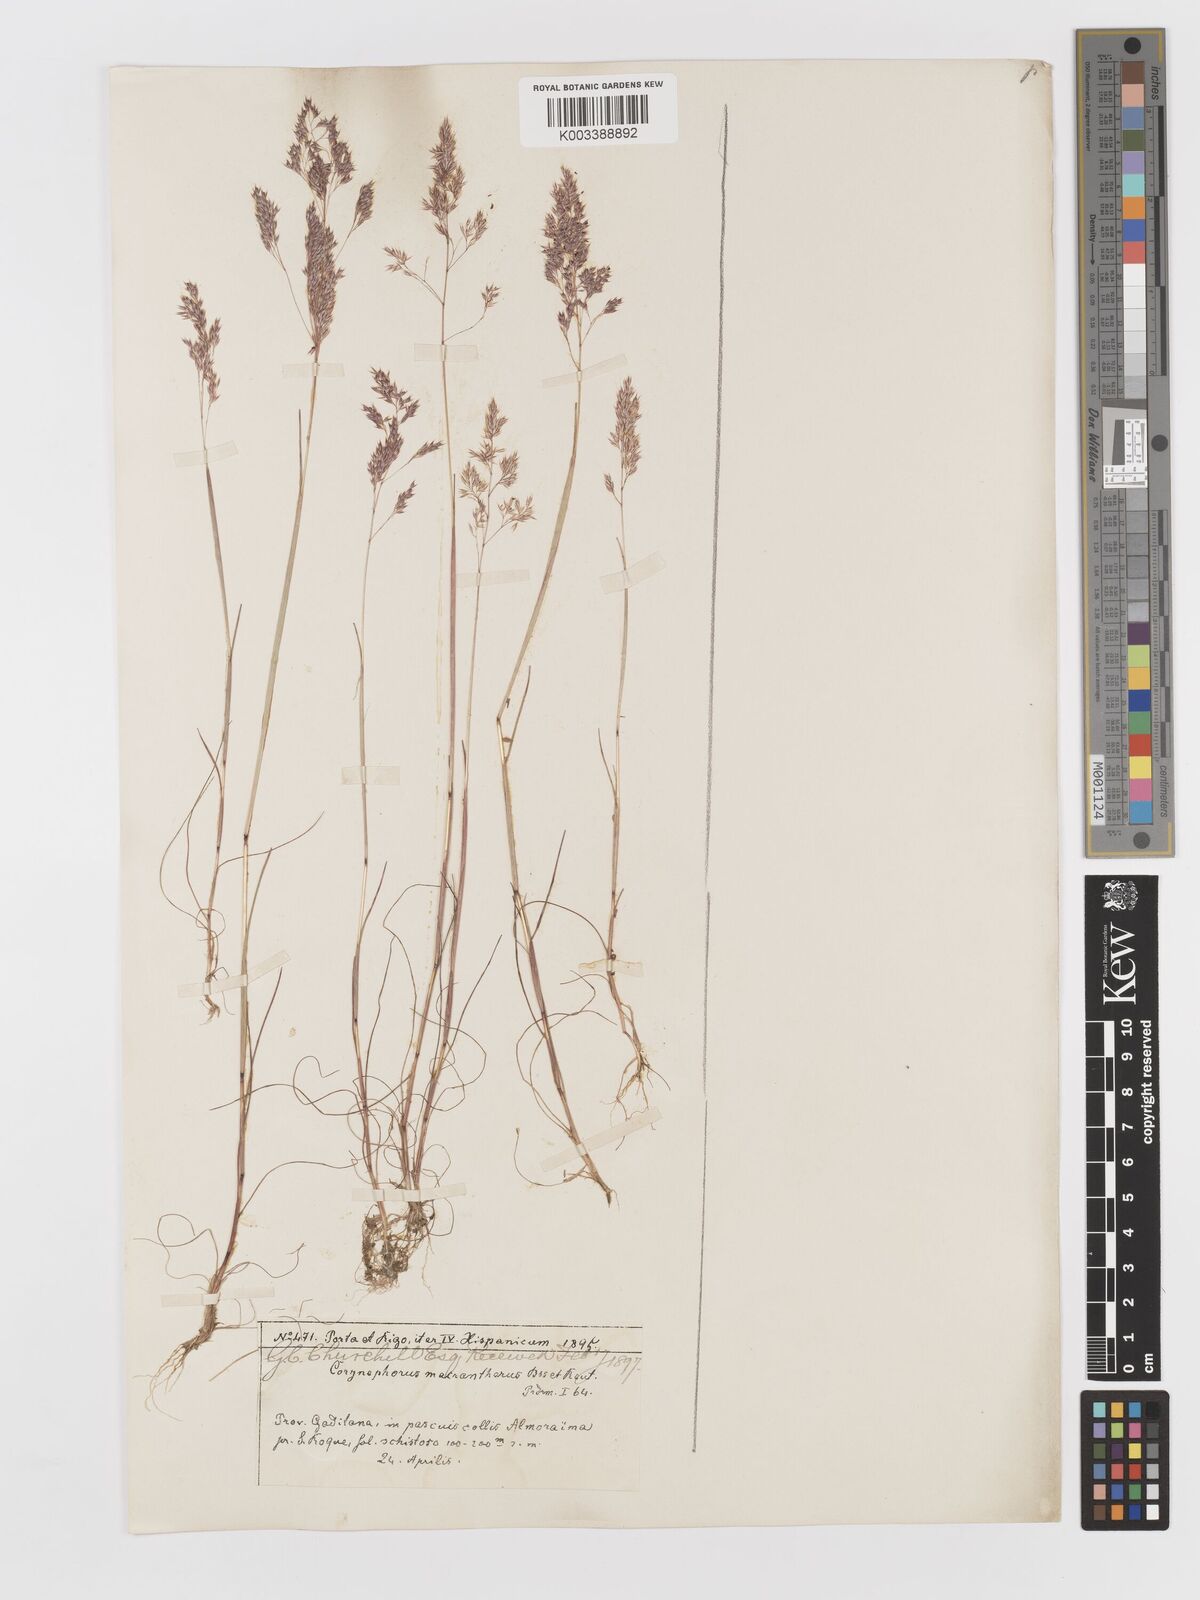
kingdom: Plantae
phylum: Tracheophyta
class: Liliopsida
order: Poales
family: Poaceae
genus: Corynephorus
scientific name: Corynephorus macrantherus
